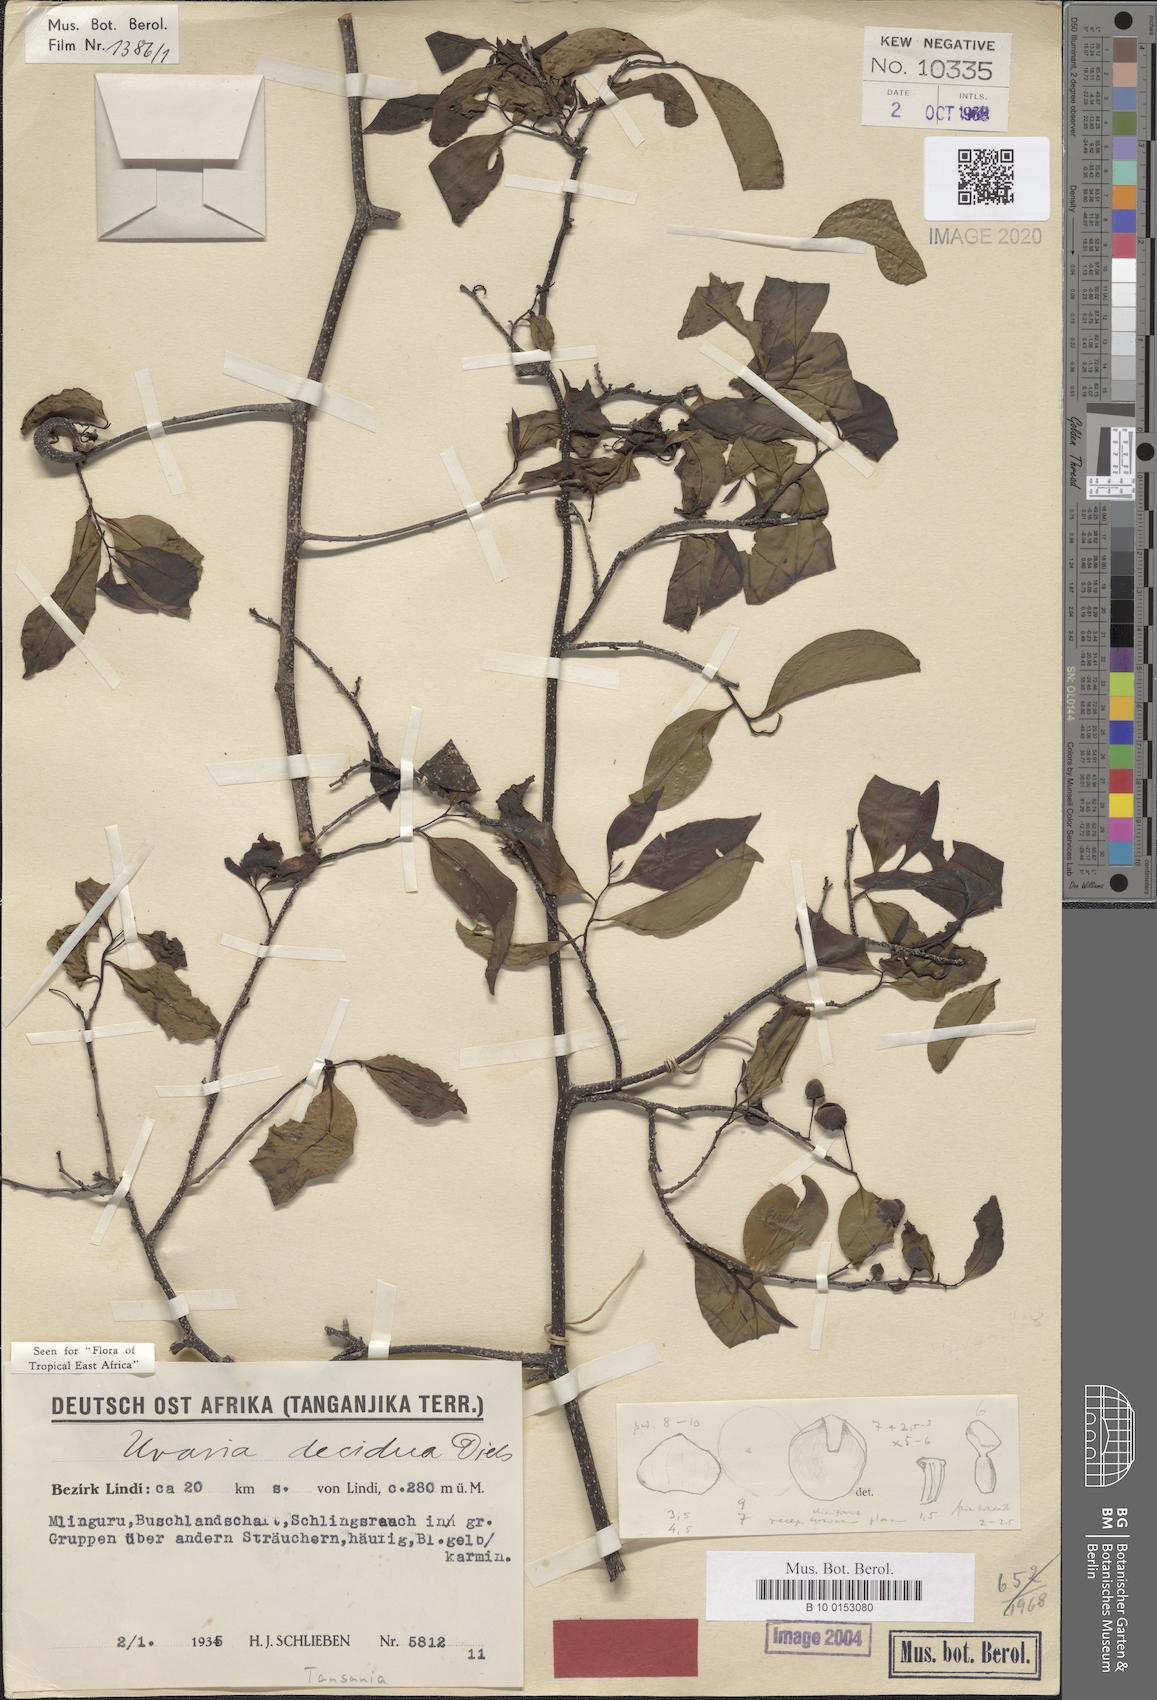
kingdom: Plantae
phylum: Tracheophyta
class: Magnoliopsida
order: Magnoliales
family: Annonaceae
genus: Uvaria
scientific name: Uvaria decidua
